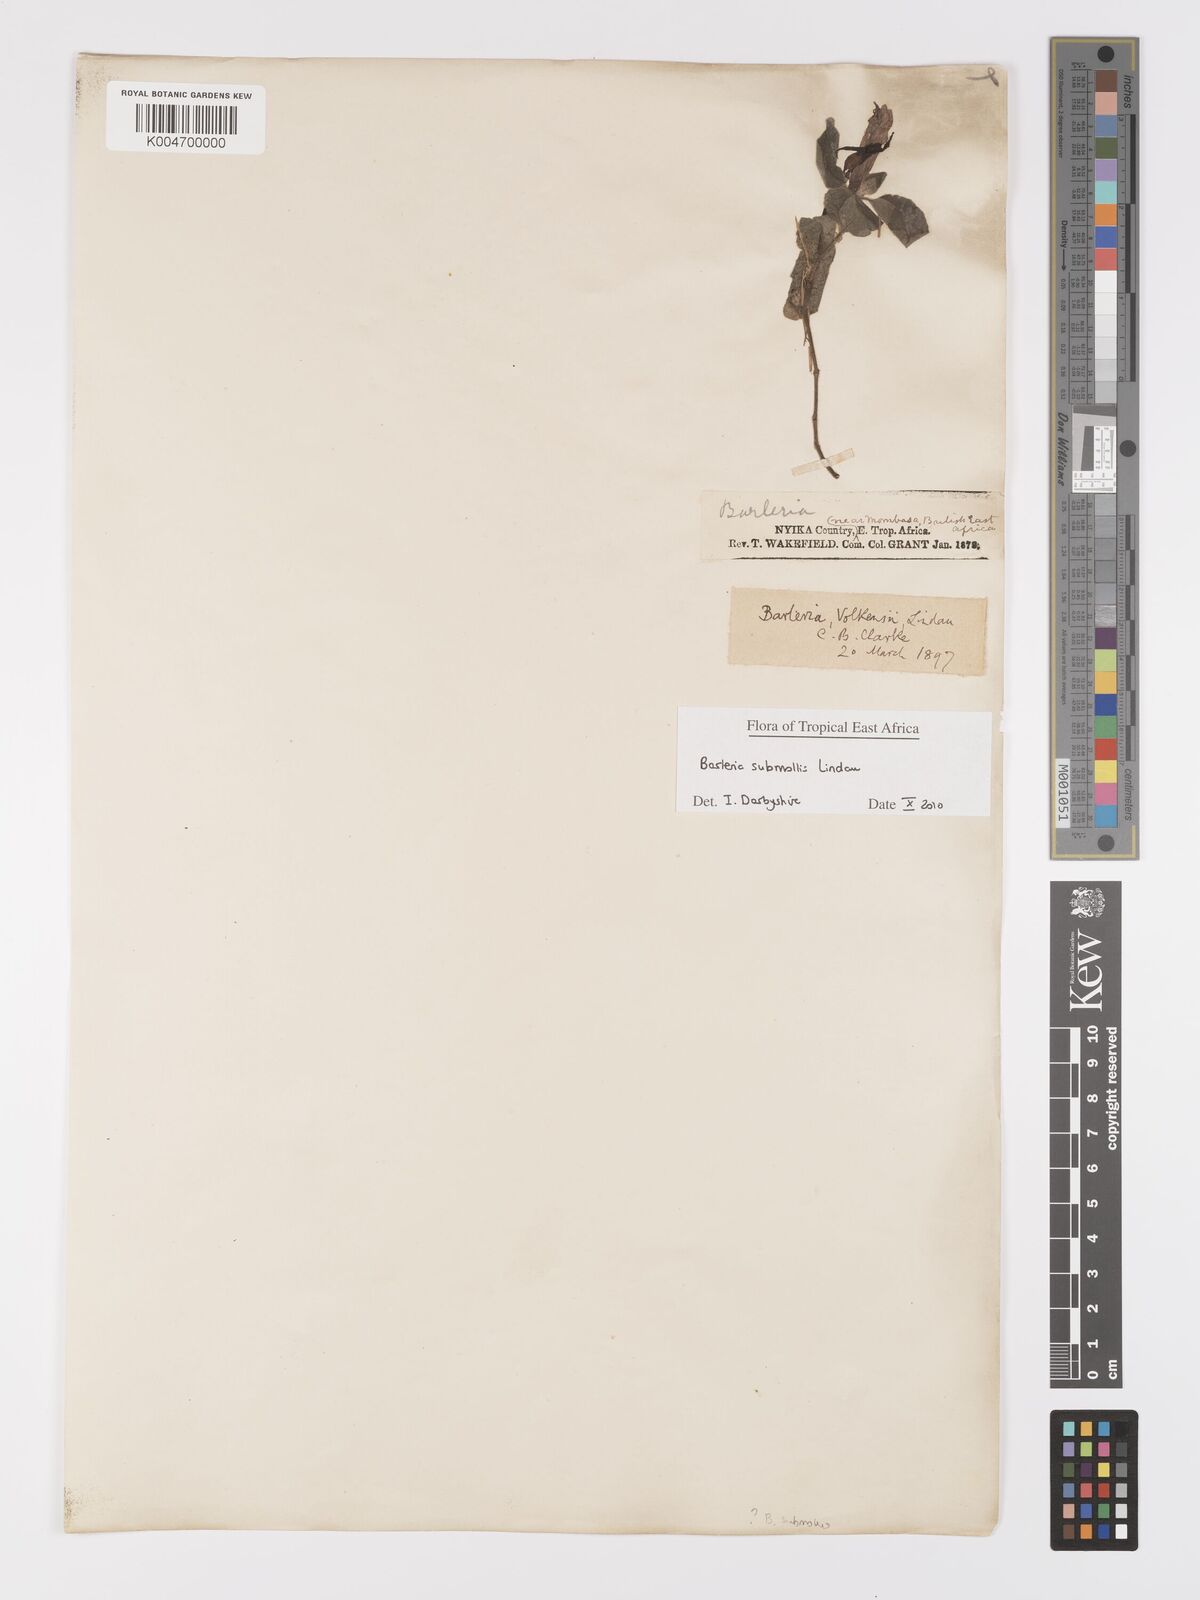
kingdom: Plantae
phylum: Tracheophyta
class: Magnoliopsida
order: Lamiales
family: Acanthaceae
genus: Barleria
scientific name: Barleria submollis
